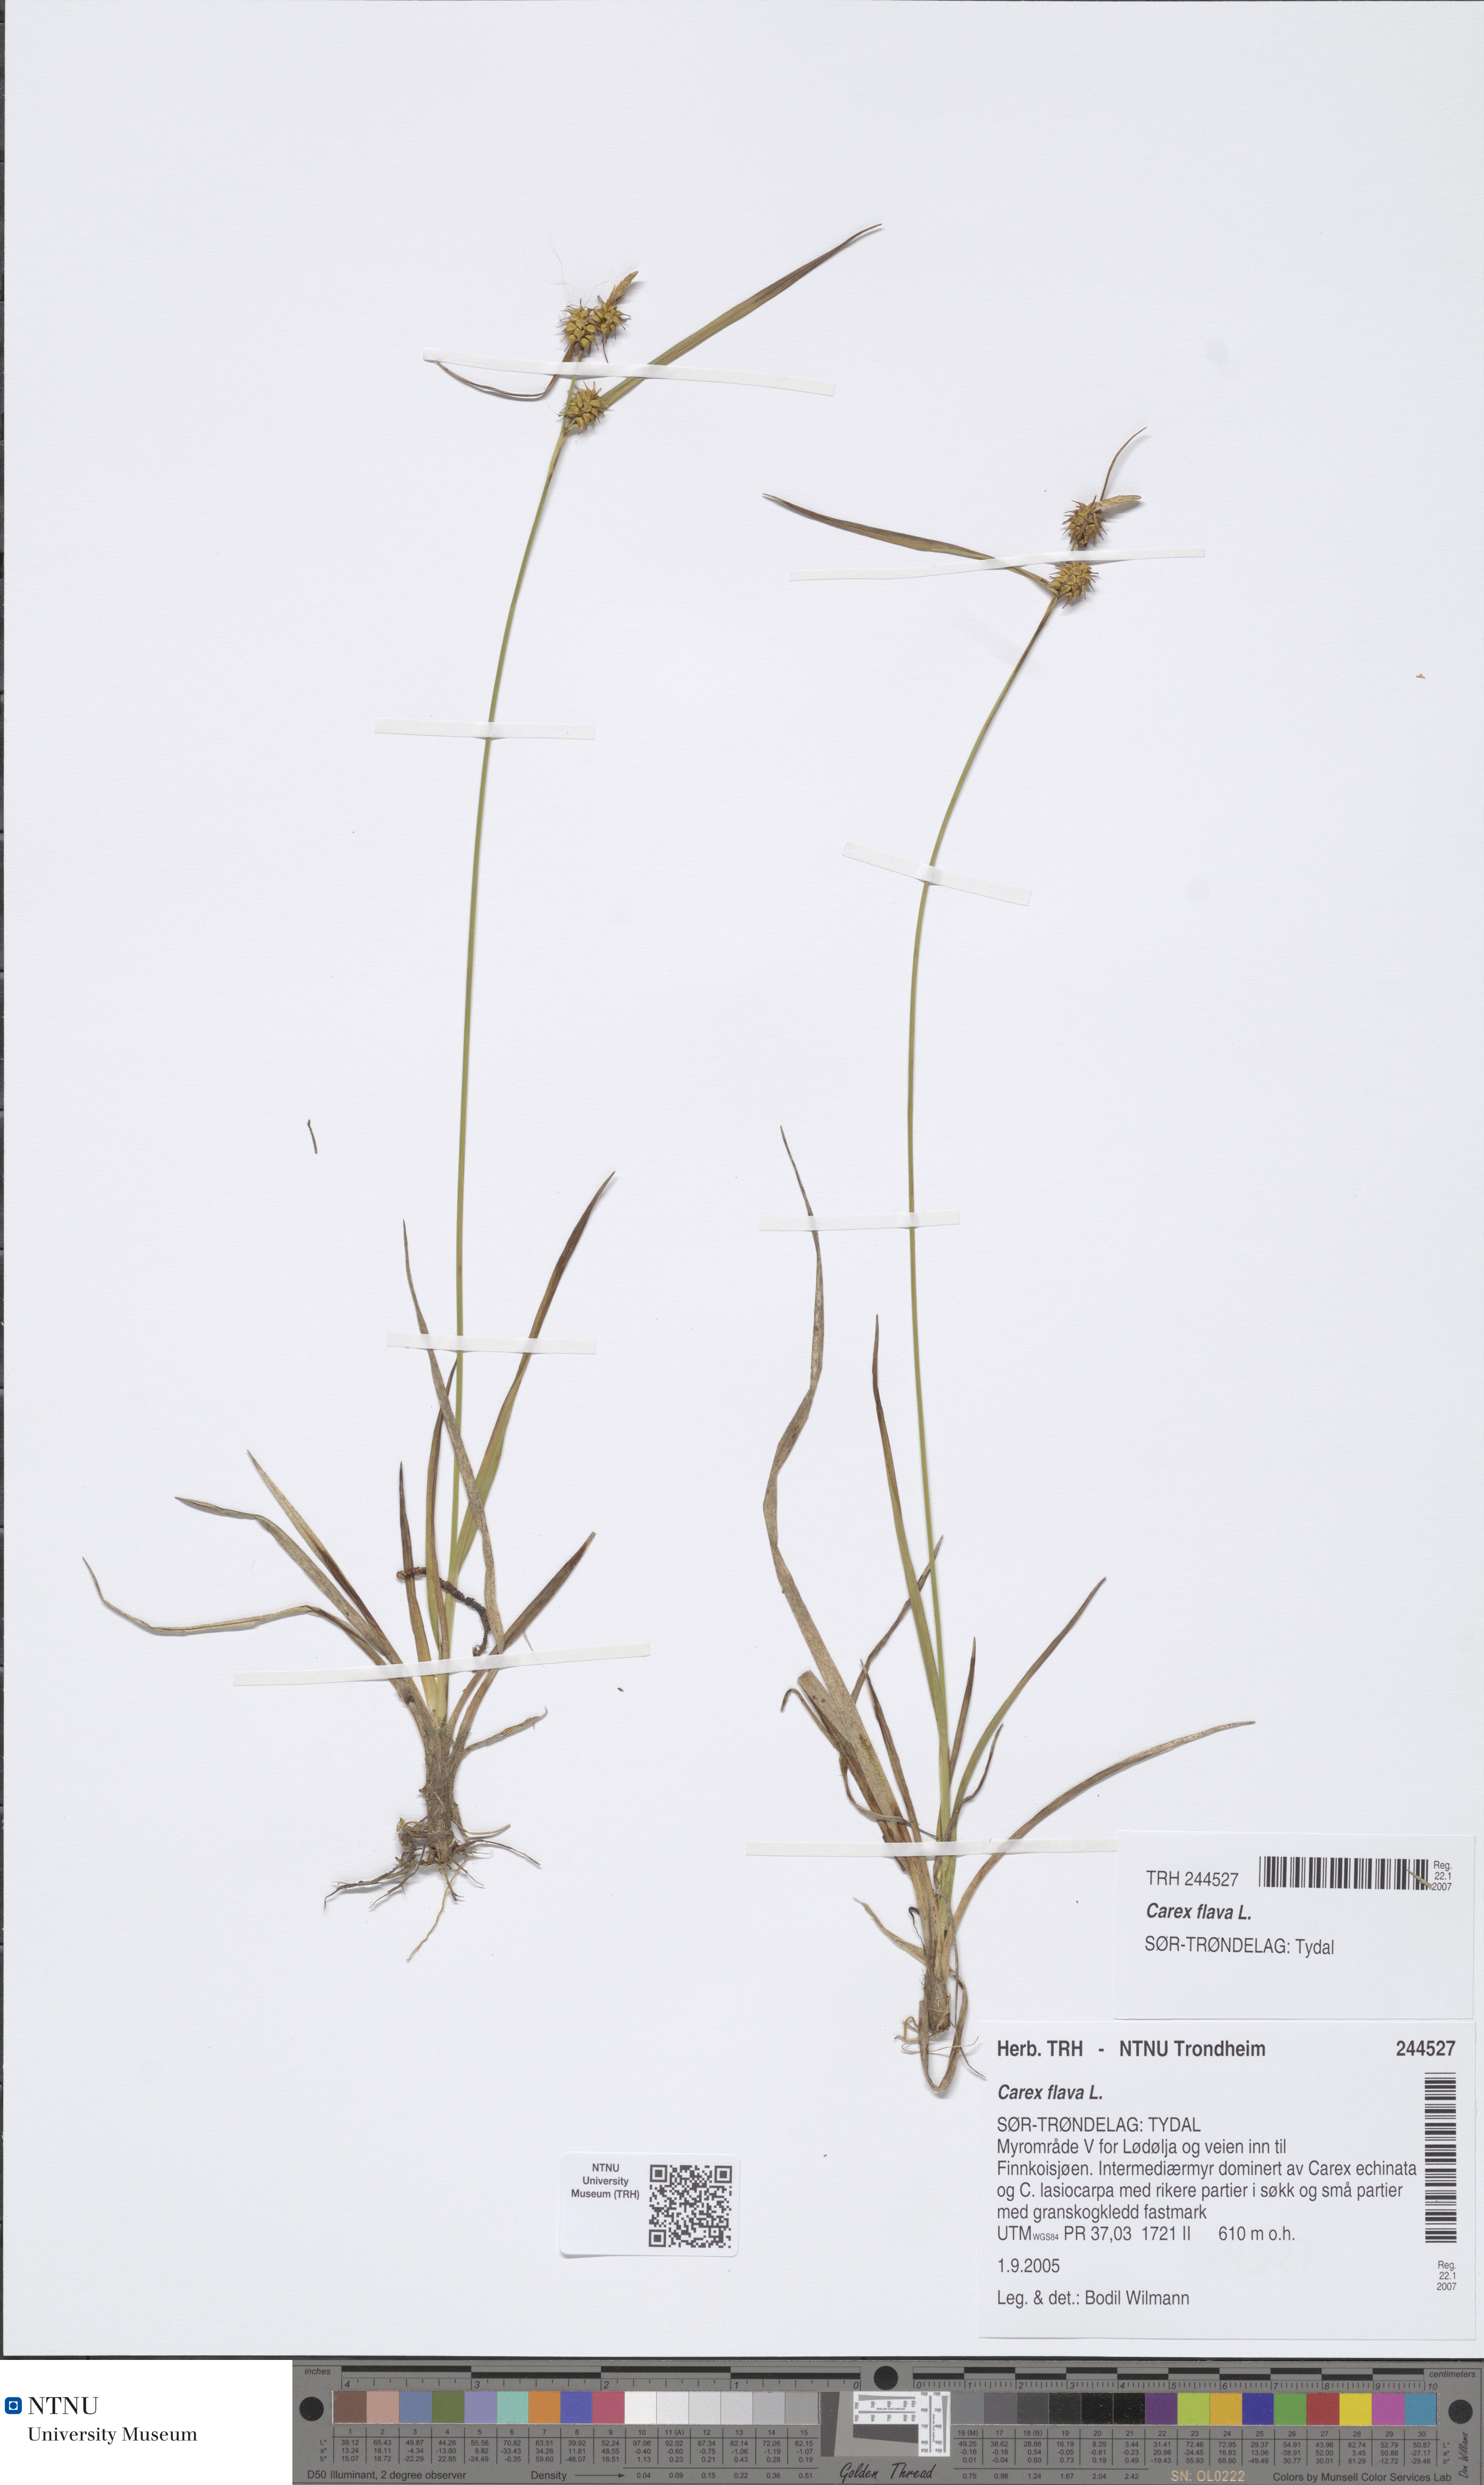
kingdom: Plantae
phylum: Tracheophyta
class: Liliopsida
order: Poales
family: Cyperaceae
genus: Carex
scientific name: Carex flava
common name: Large yellow-sedge
